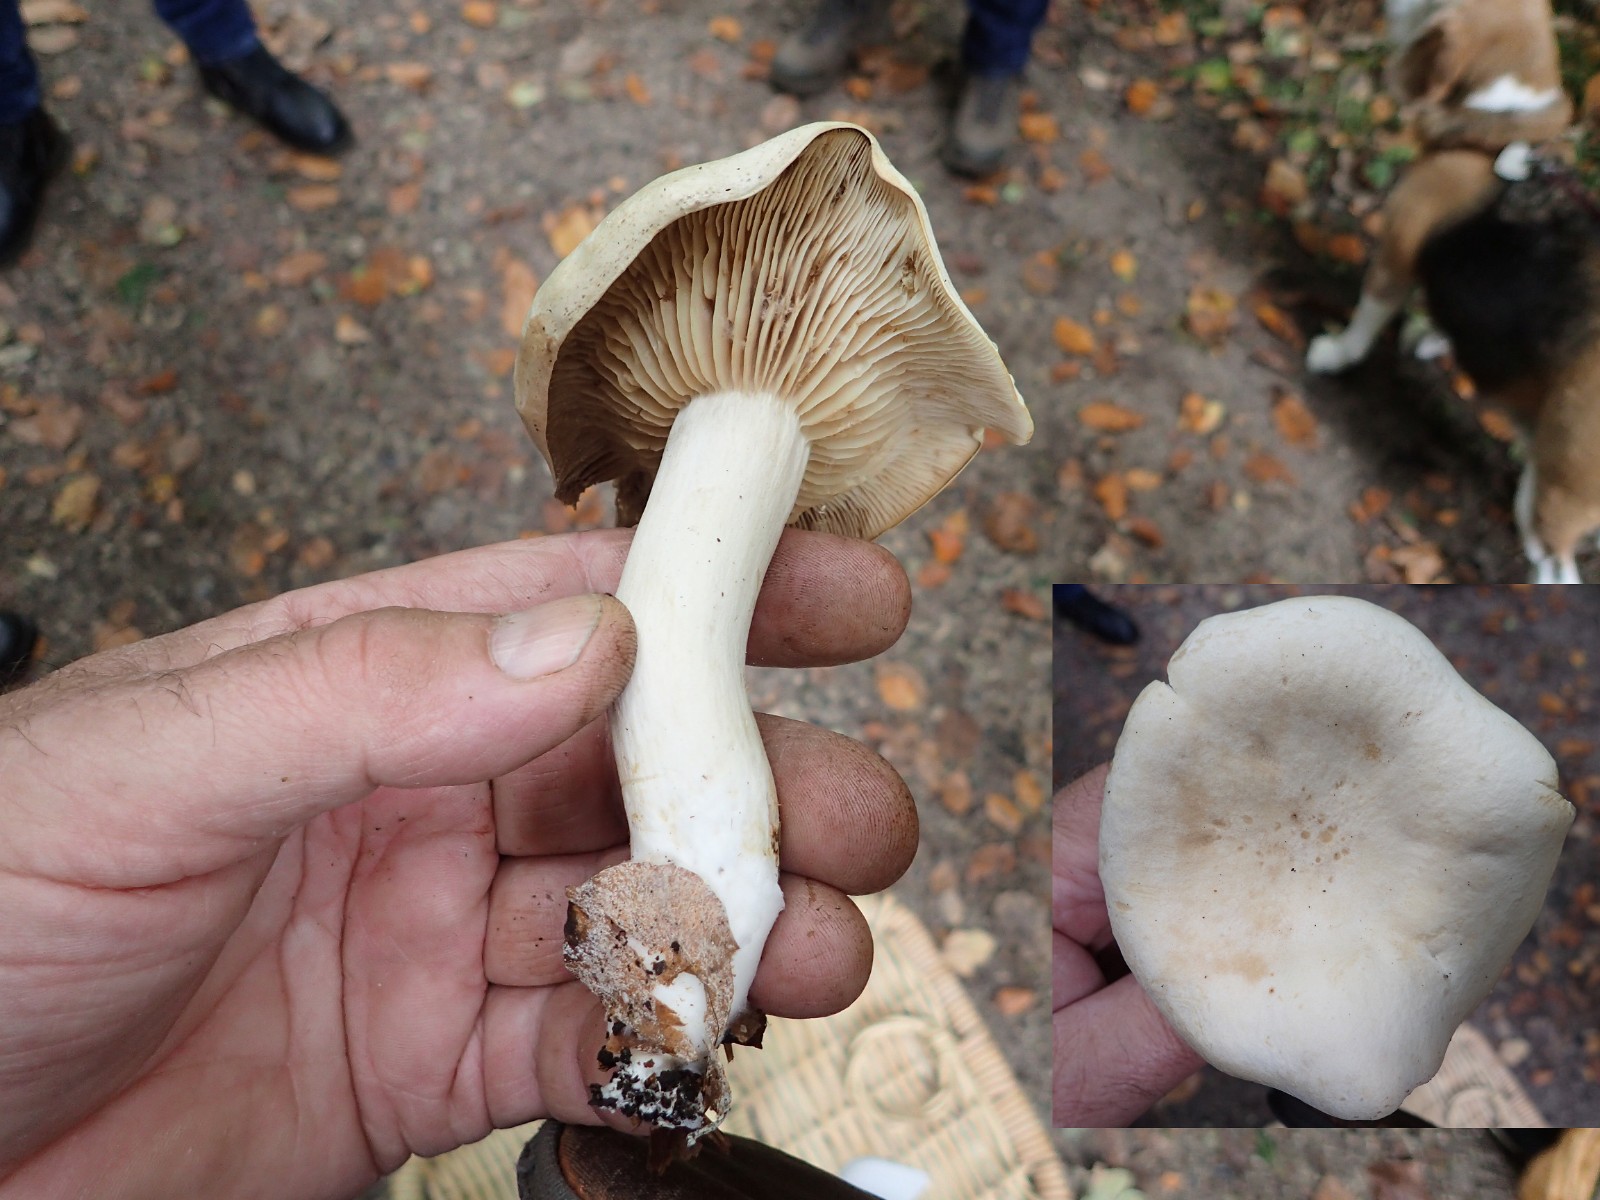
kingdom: Fungi
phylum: Basidiomycota
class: Agaricomycetes
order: Agaricales
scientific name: Agaricales
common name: champignonordenen
